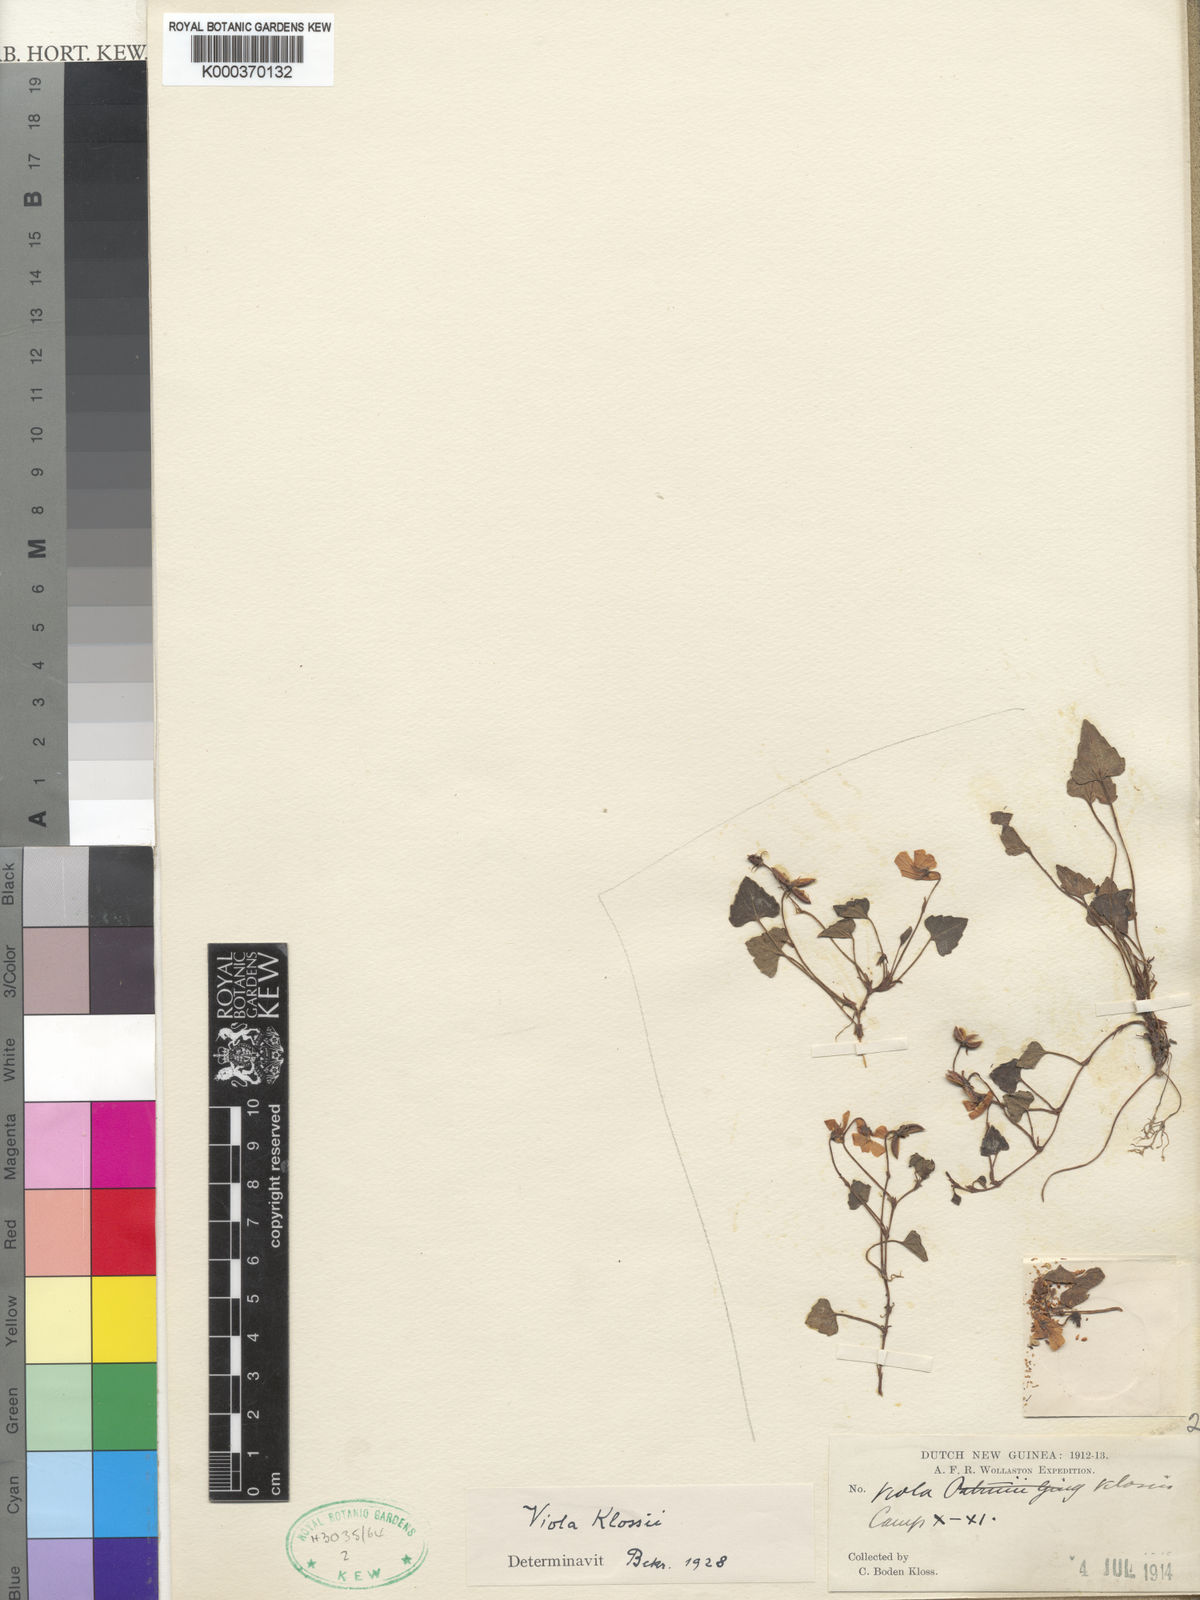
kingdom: Plantae
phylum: Tracheophyta
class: Magnoliopsida
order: Malpighiales
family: Violaceae
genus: Viola
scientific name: Viola papuana
